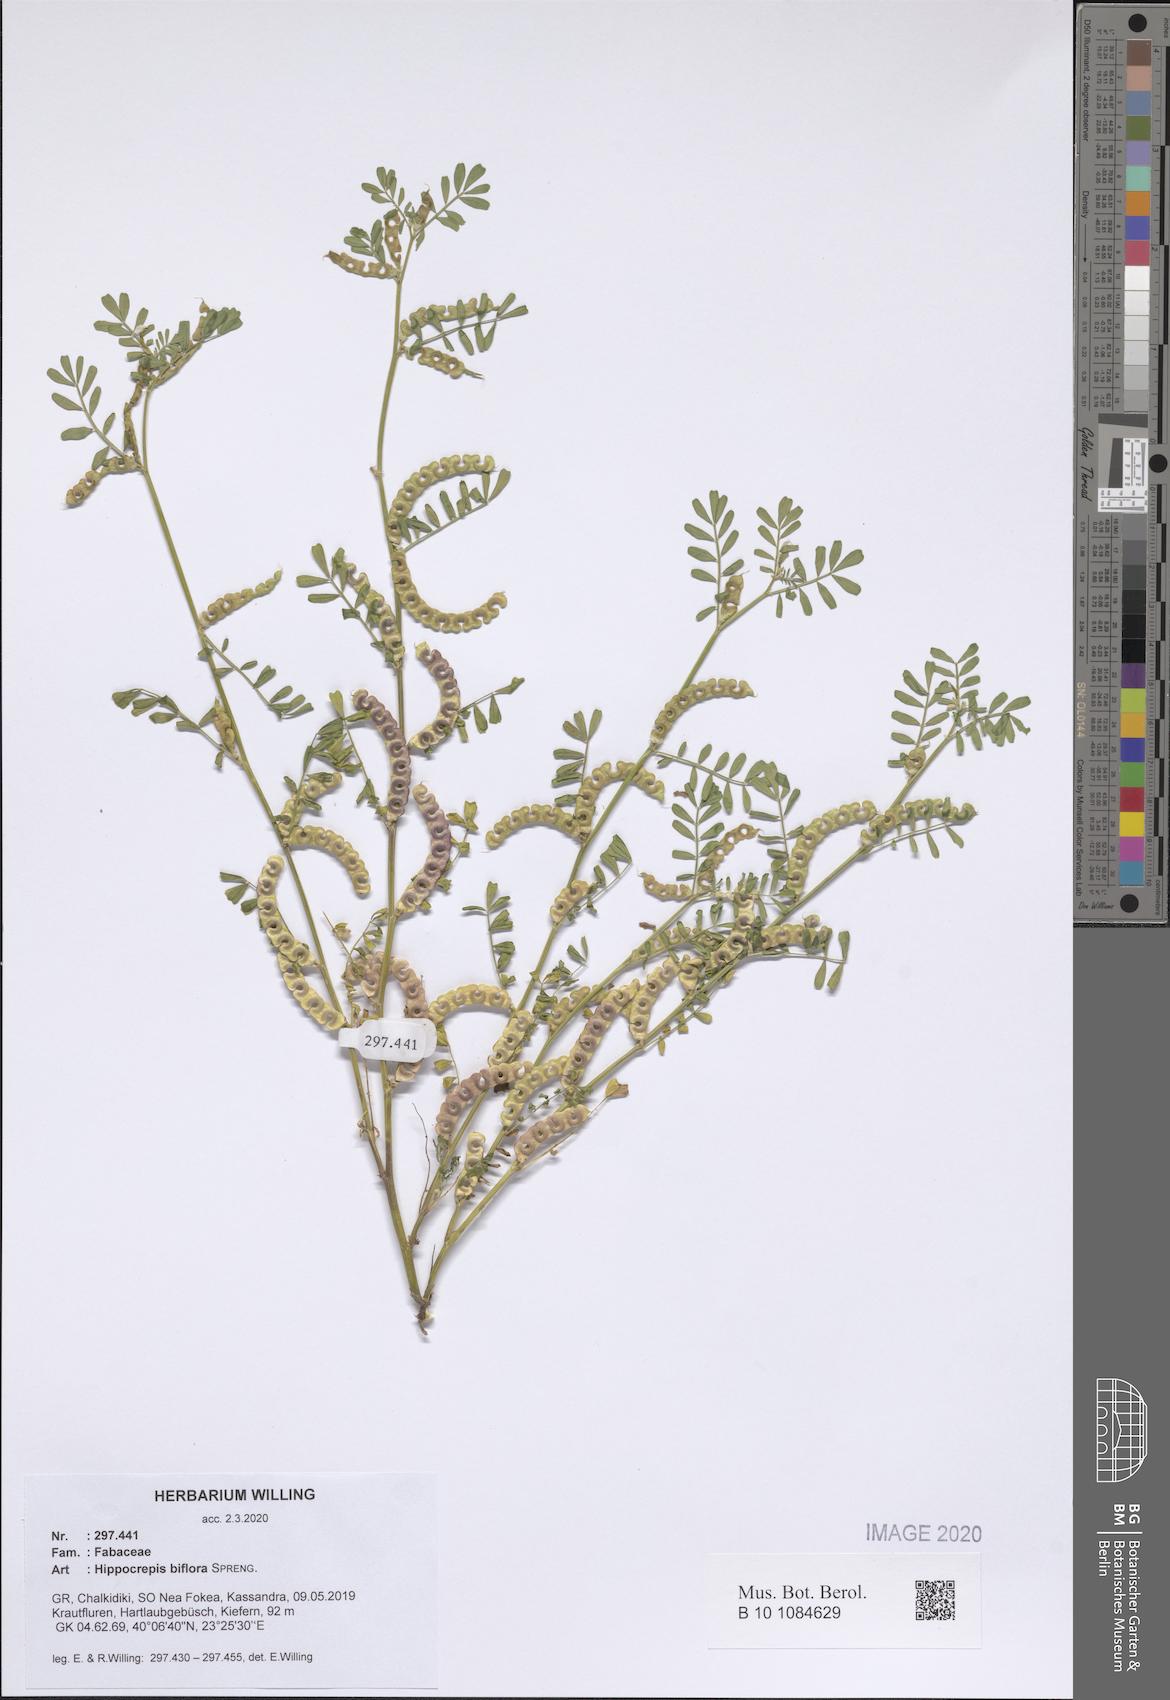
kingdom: Plantae
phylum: Tracheophyta
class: Magnoliopsida
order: Fabales
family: Fabaceae
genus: Hippocrepis
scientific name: Hippocrepis biflora
